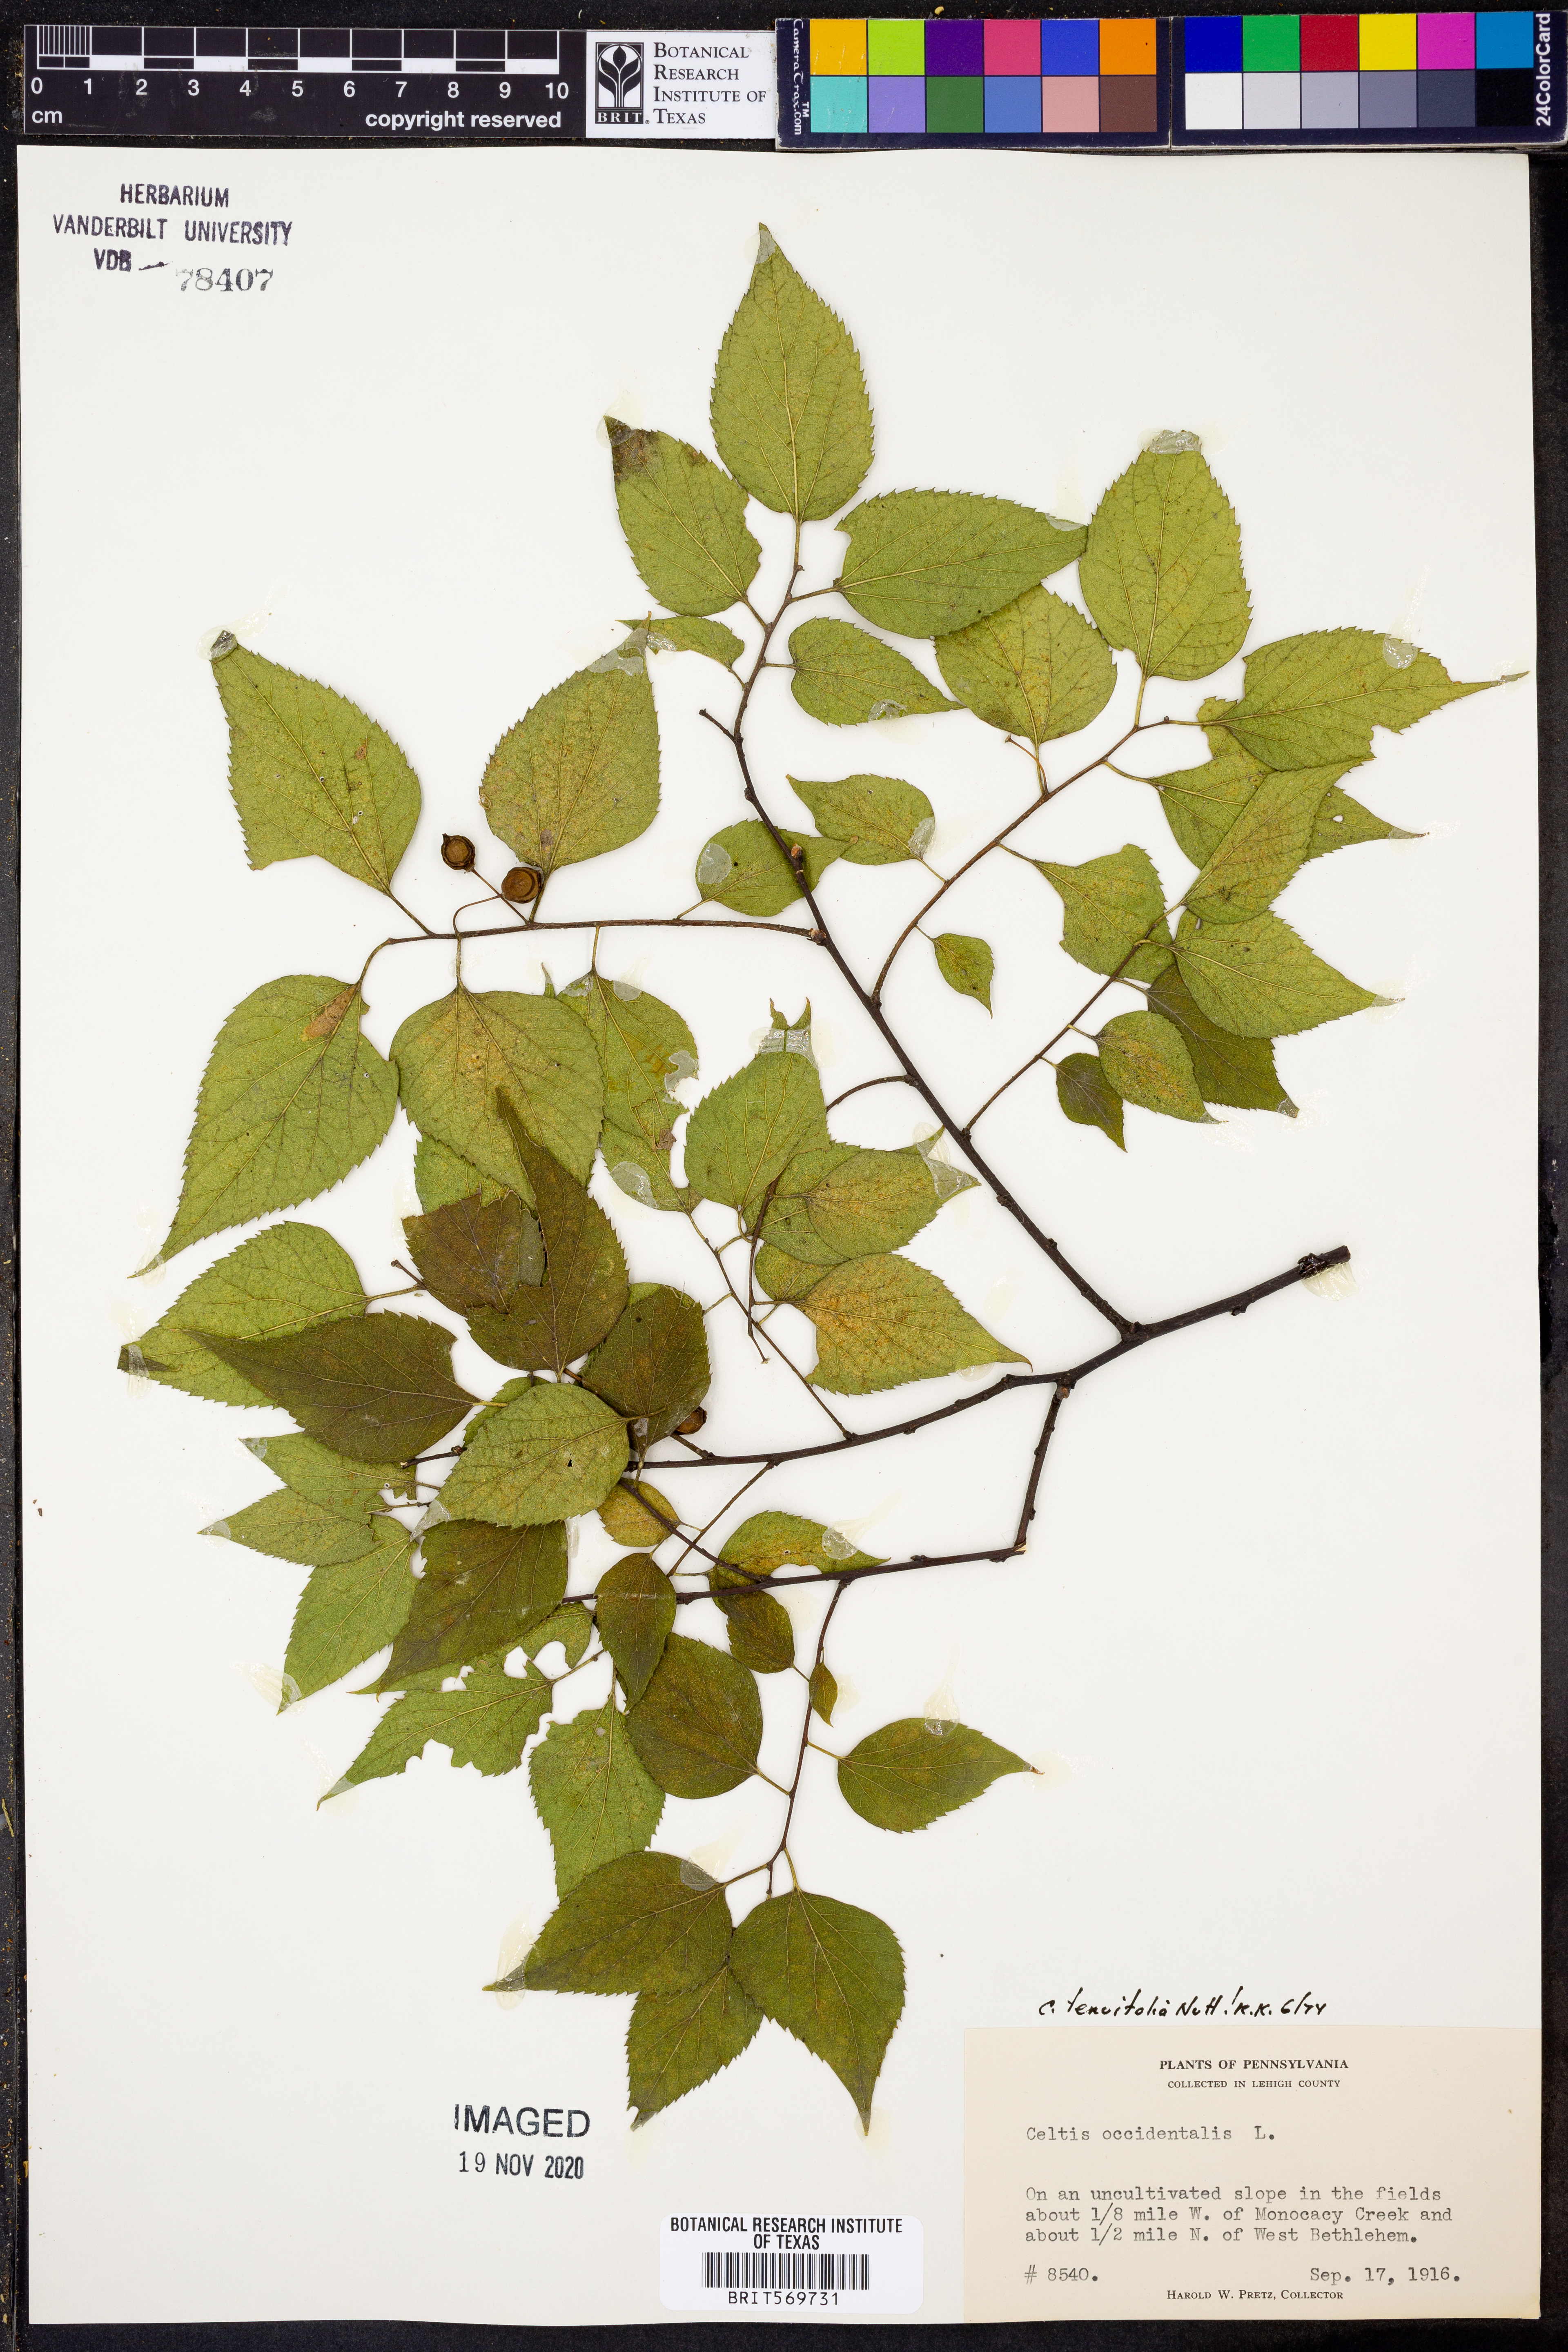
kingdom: Plantae
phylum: Tracheophyta
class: Magnoliopsida
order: Rosales
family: Cannabaceae
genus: Celtis
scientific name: Celtis tenuifolia
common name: Georgia hackberry
